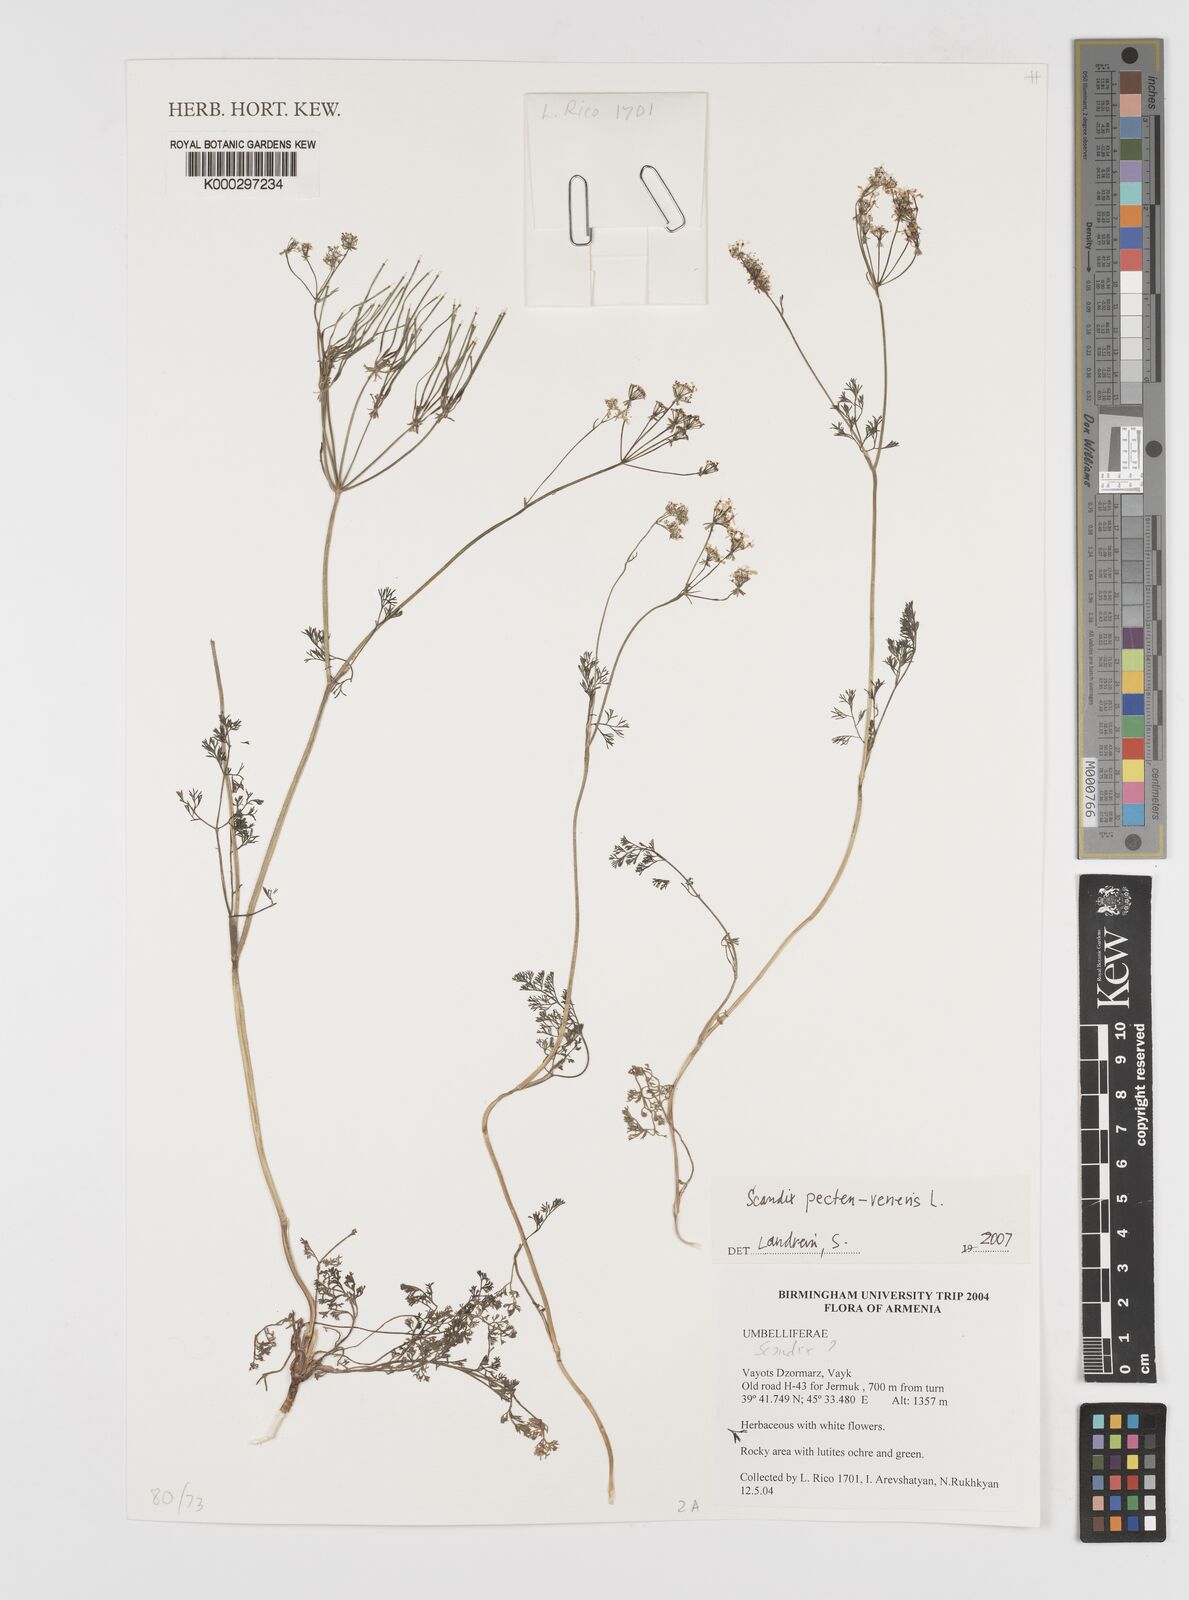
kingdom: Plantae
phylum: Tracheophyta
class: Magnoliopsida
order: Apiales
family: Apiaceae
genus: Scandix
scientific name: Scandix
